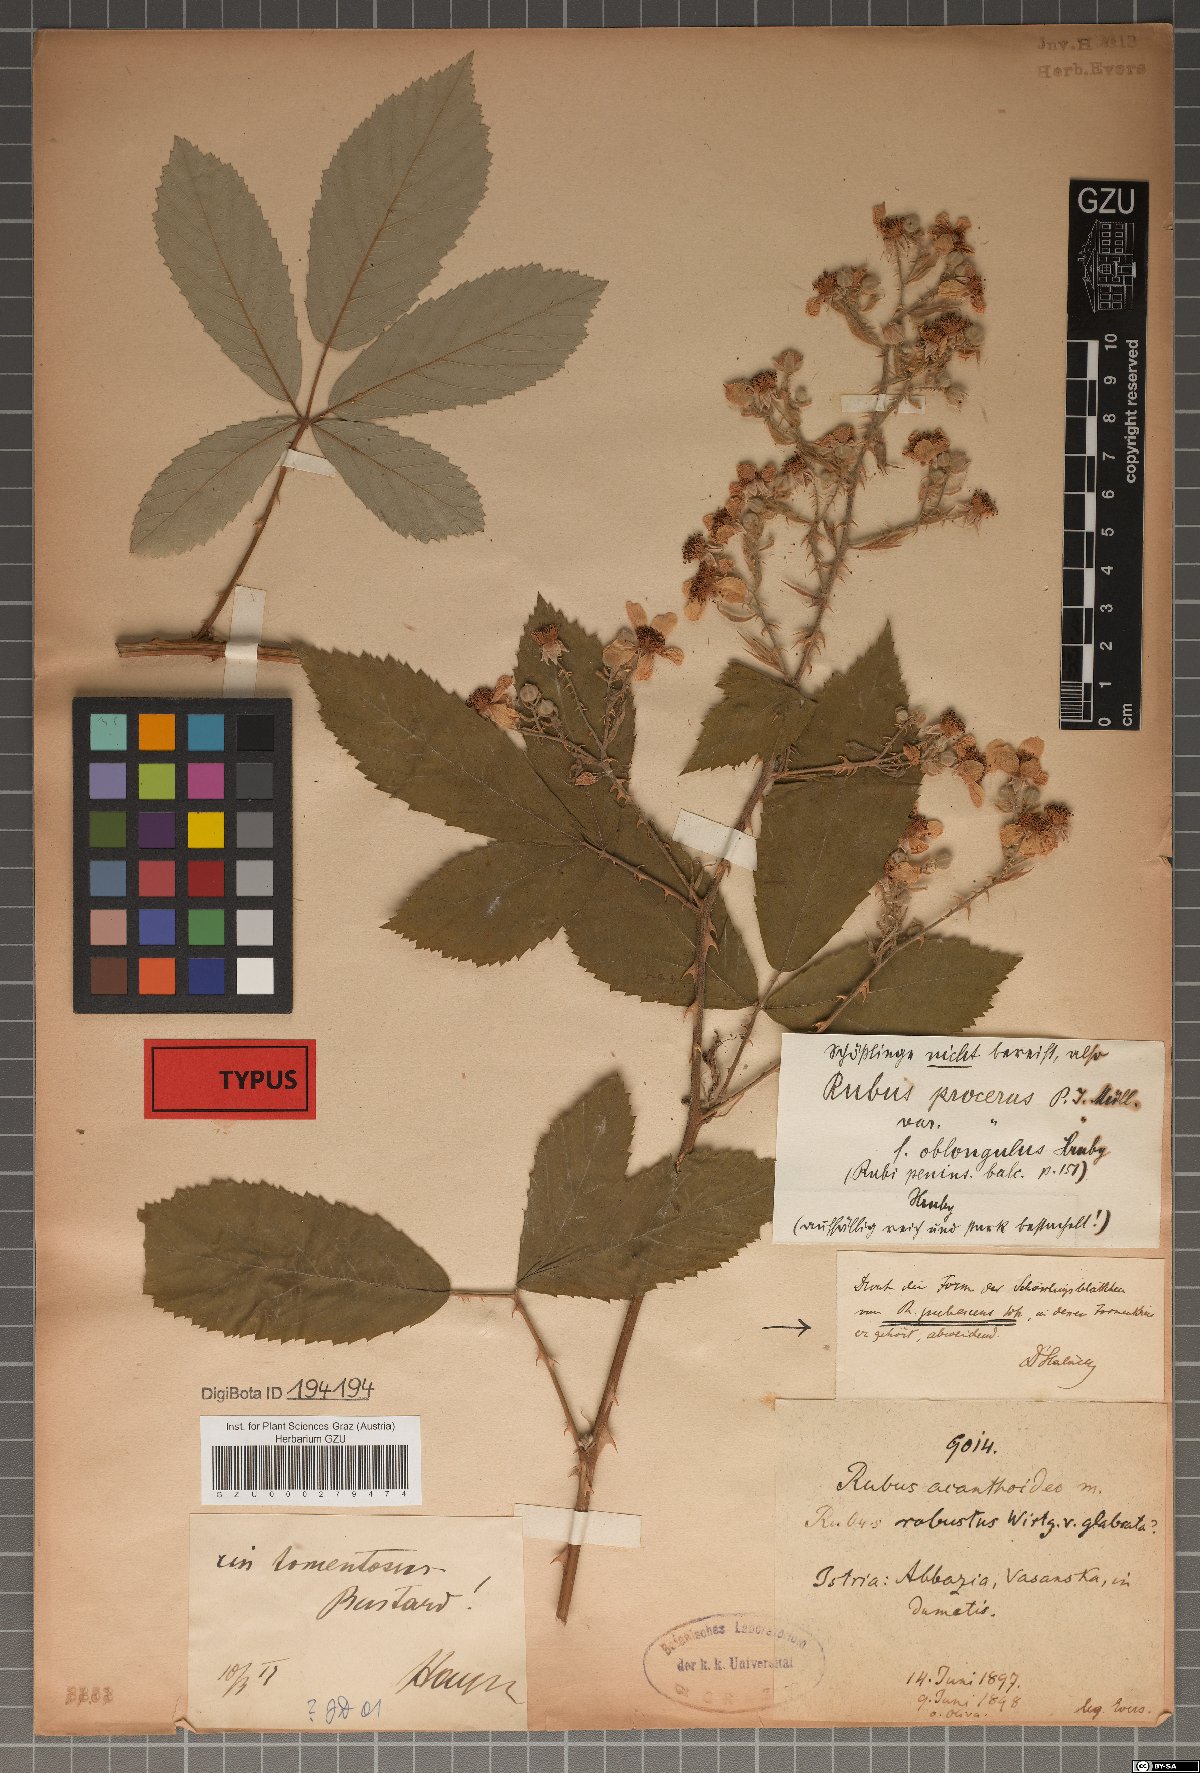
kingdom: Plantae
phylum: Tracheophyta
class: Magnoliopsida
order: Rosales
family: Rosaceae
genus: Rubus
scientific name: Rubus ancanthoides
